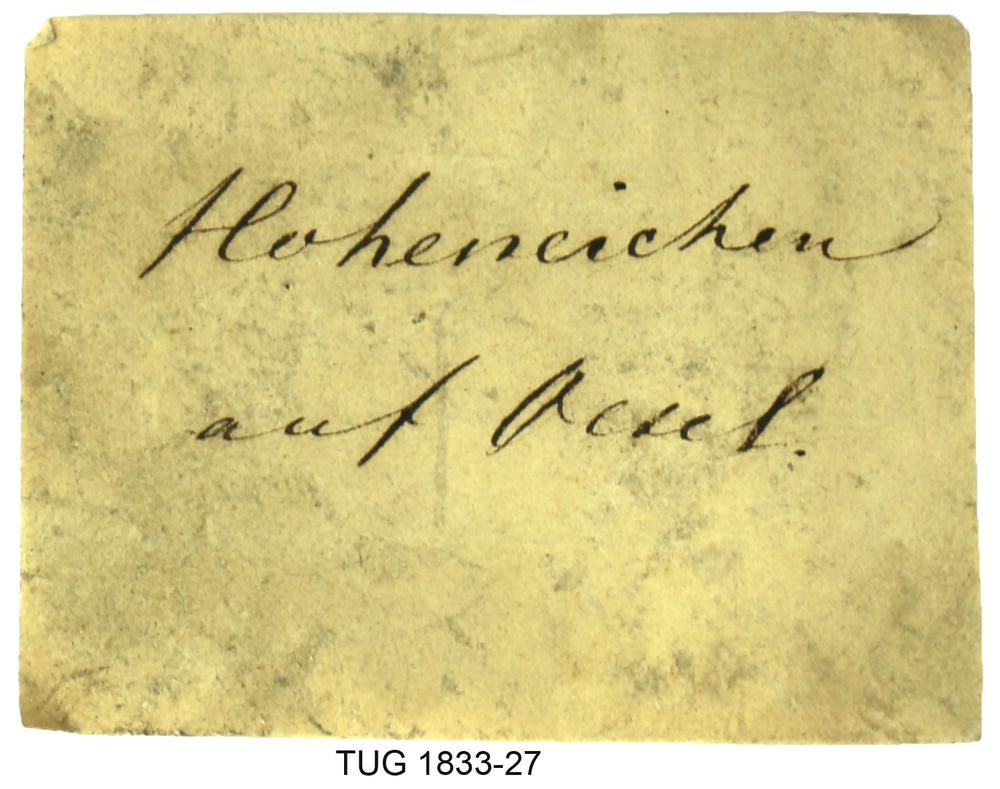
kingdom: Animalia
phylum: Porifera
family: Stromatoporidae
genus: Stromatopora
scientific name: Stromatopora
